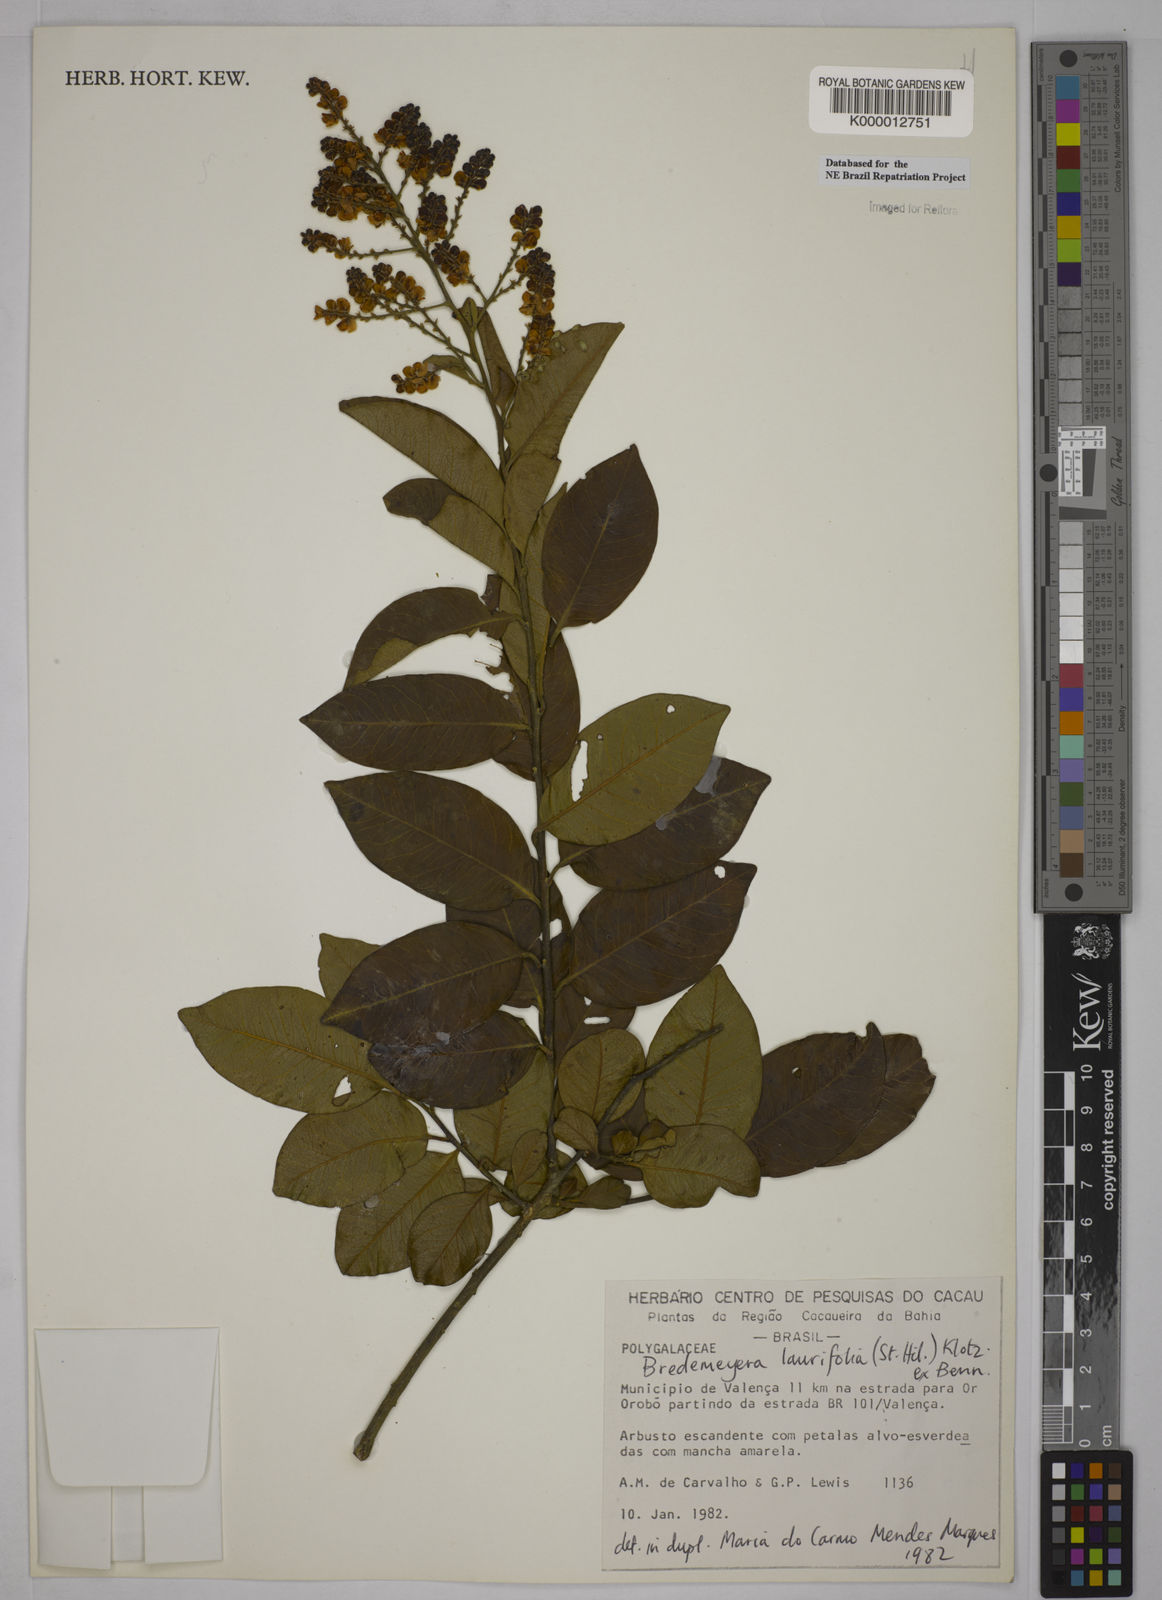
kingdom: Plantae
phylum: Tracheophyta
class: Magnoliopsida
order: Fabales
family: Polygalaceae
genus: Bredemeyera
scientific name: Bredemeyera laurifolia
